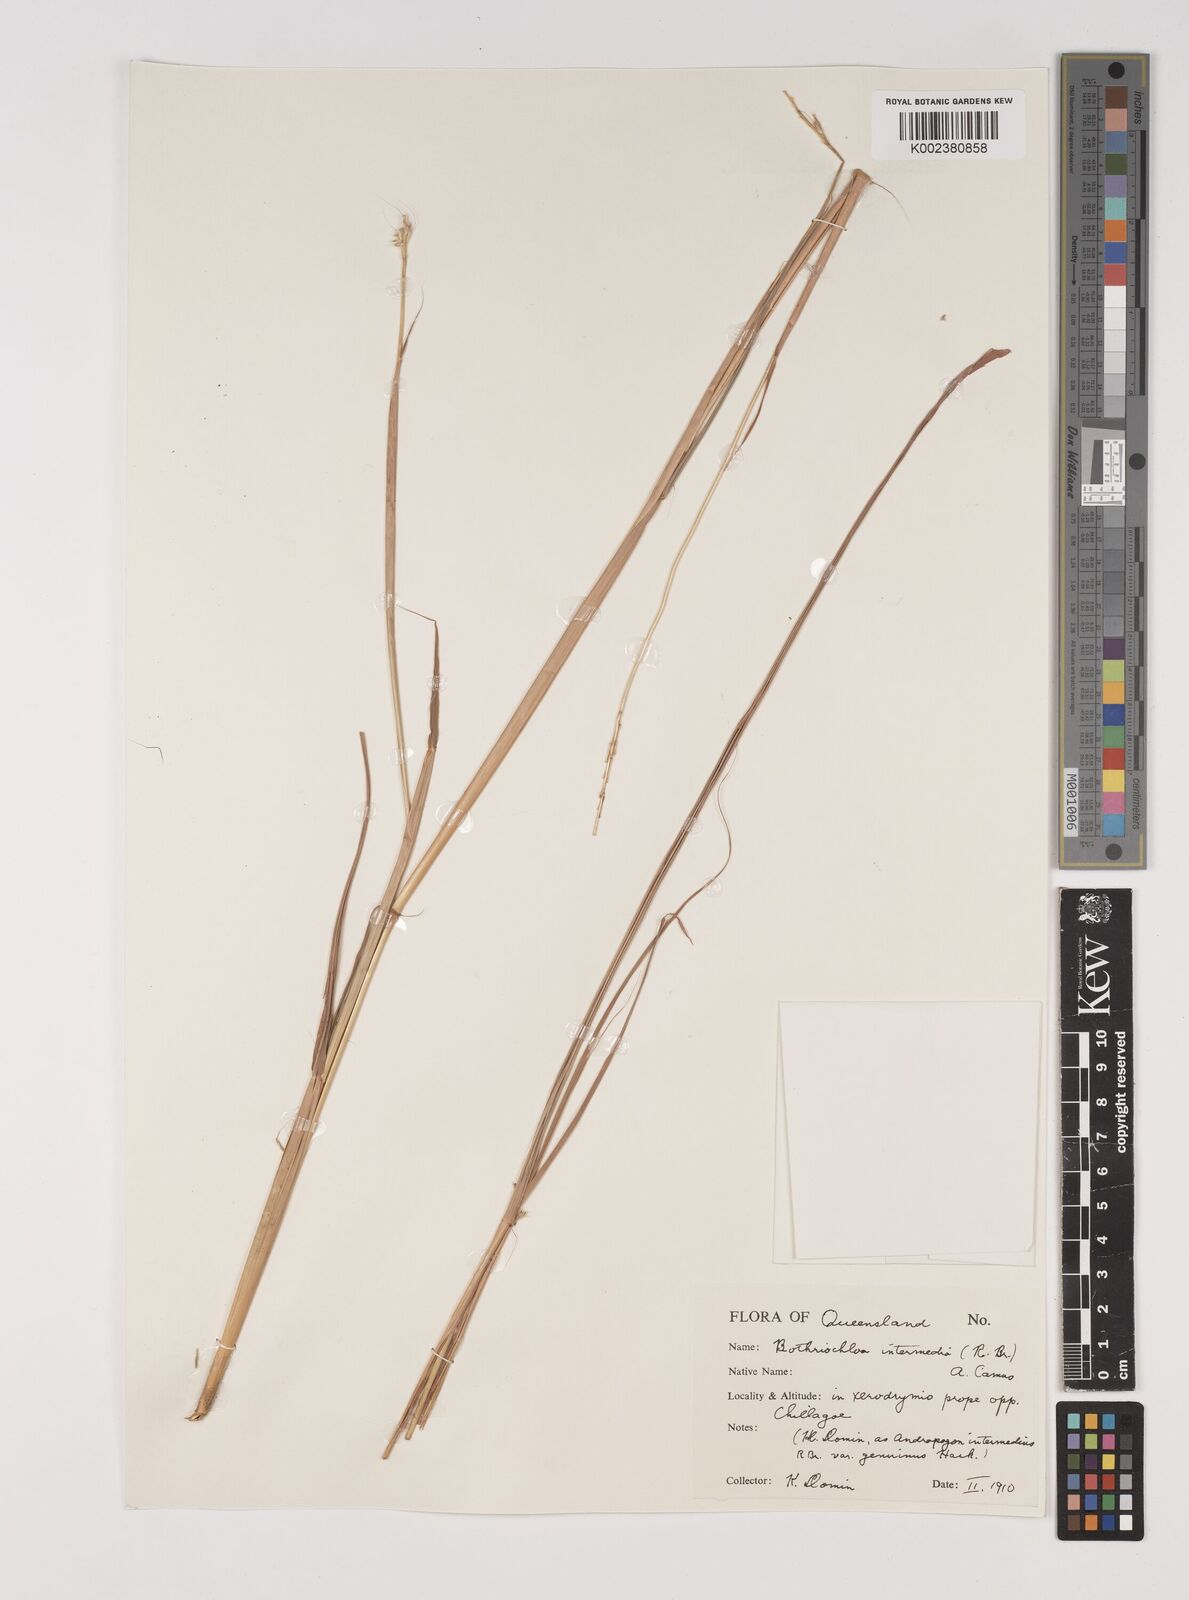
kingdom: Plantae
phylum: Tracheophyta
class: Liliopsida
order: Poales
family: Poaceae
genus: Bothriochloa
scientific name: Bothriochloa bladhii
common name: Caucasian bluestem
